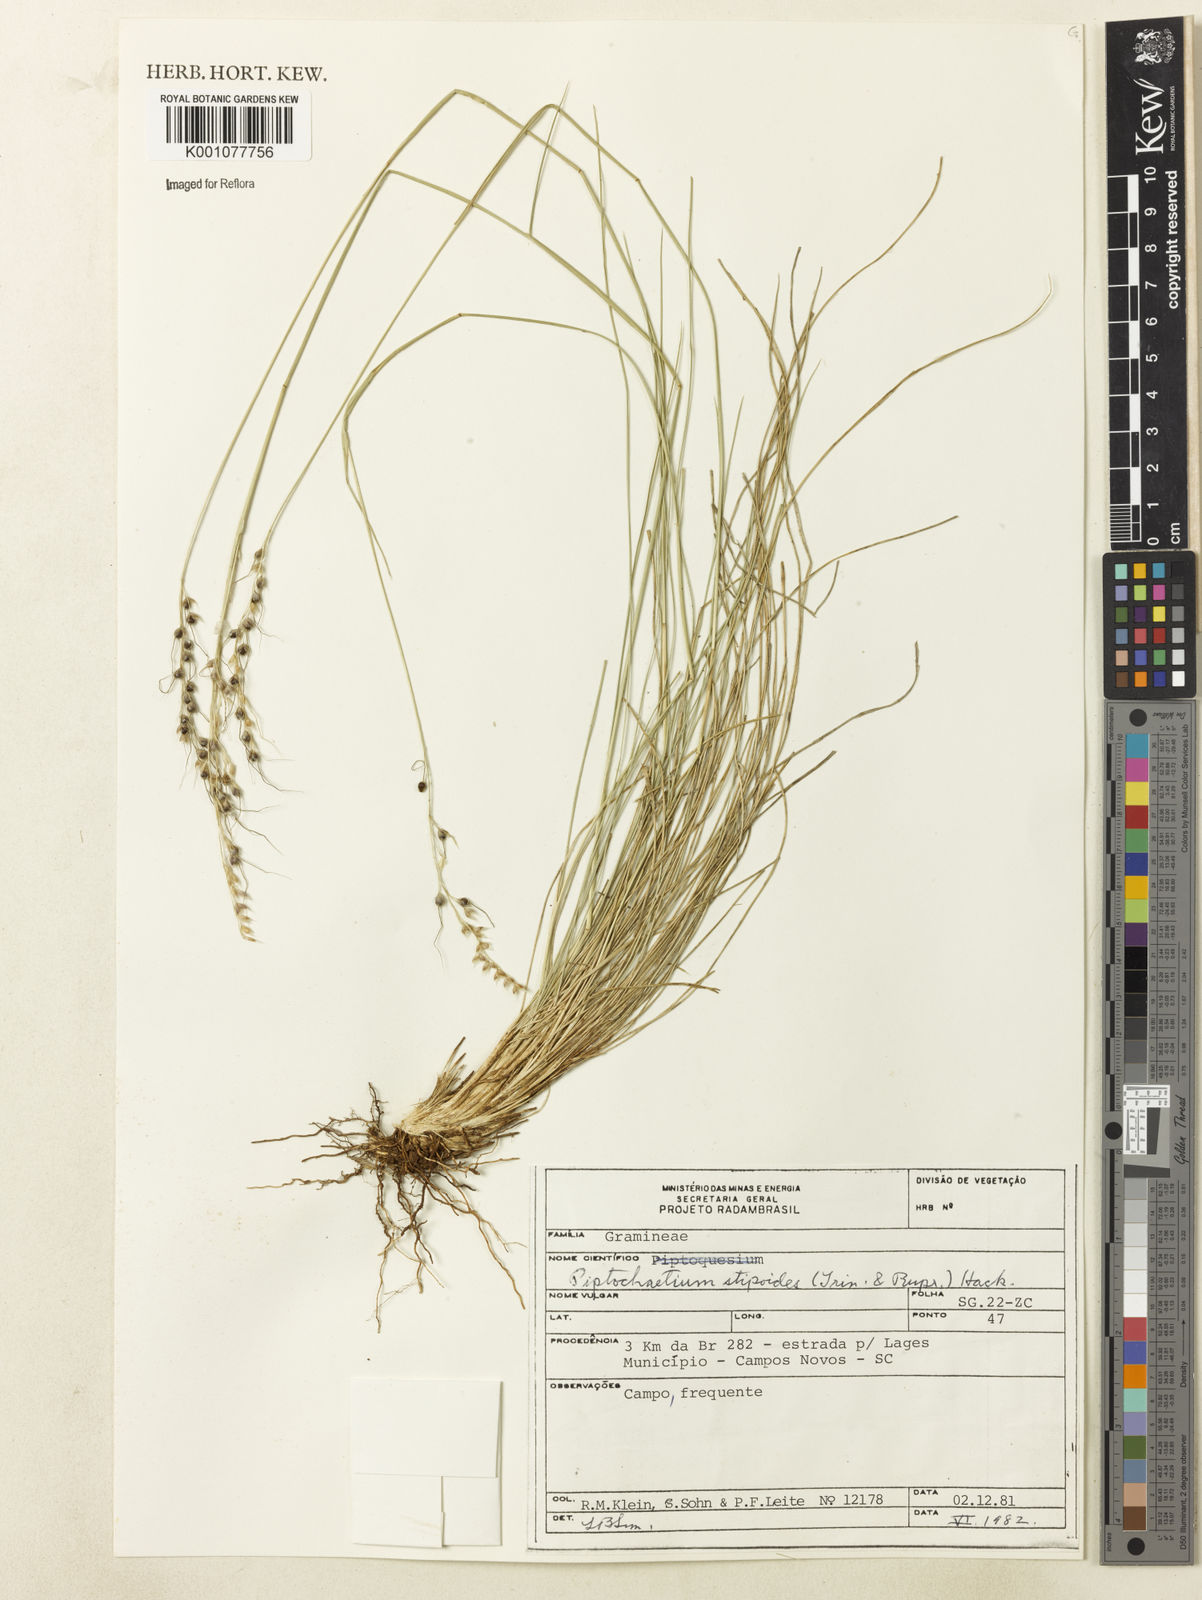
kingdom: Plantae
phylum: Tracheophyta
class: Liliopsida
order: Poales
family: Poaceae
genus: Piptochaetium
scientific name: Piptochaetium ruprechtianum
